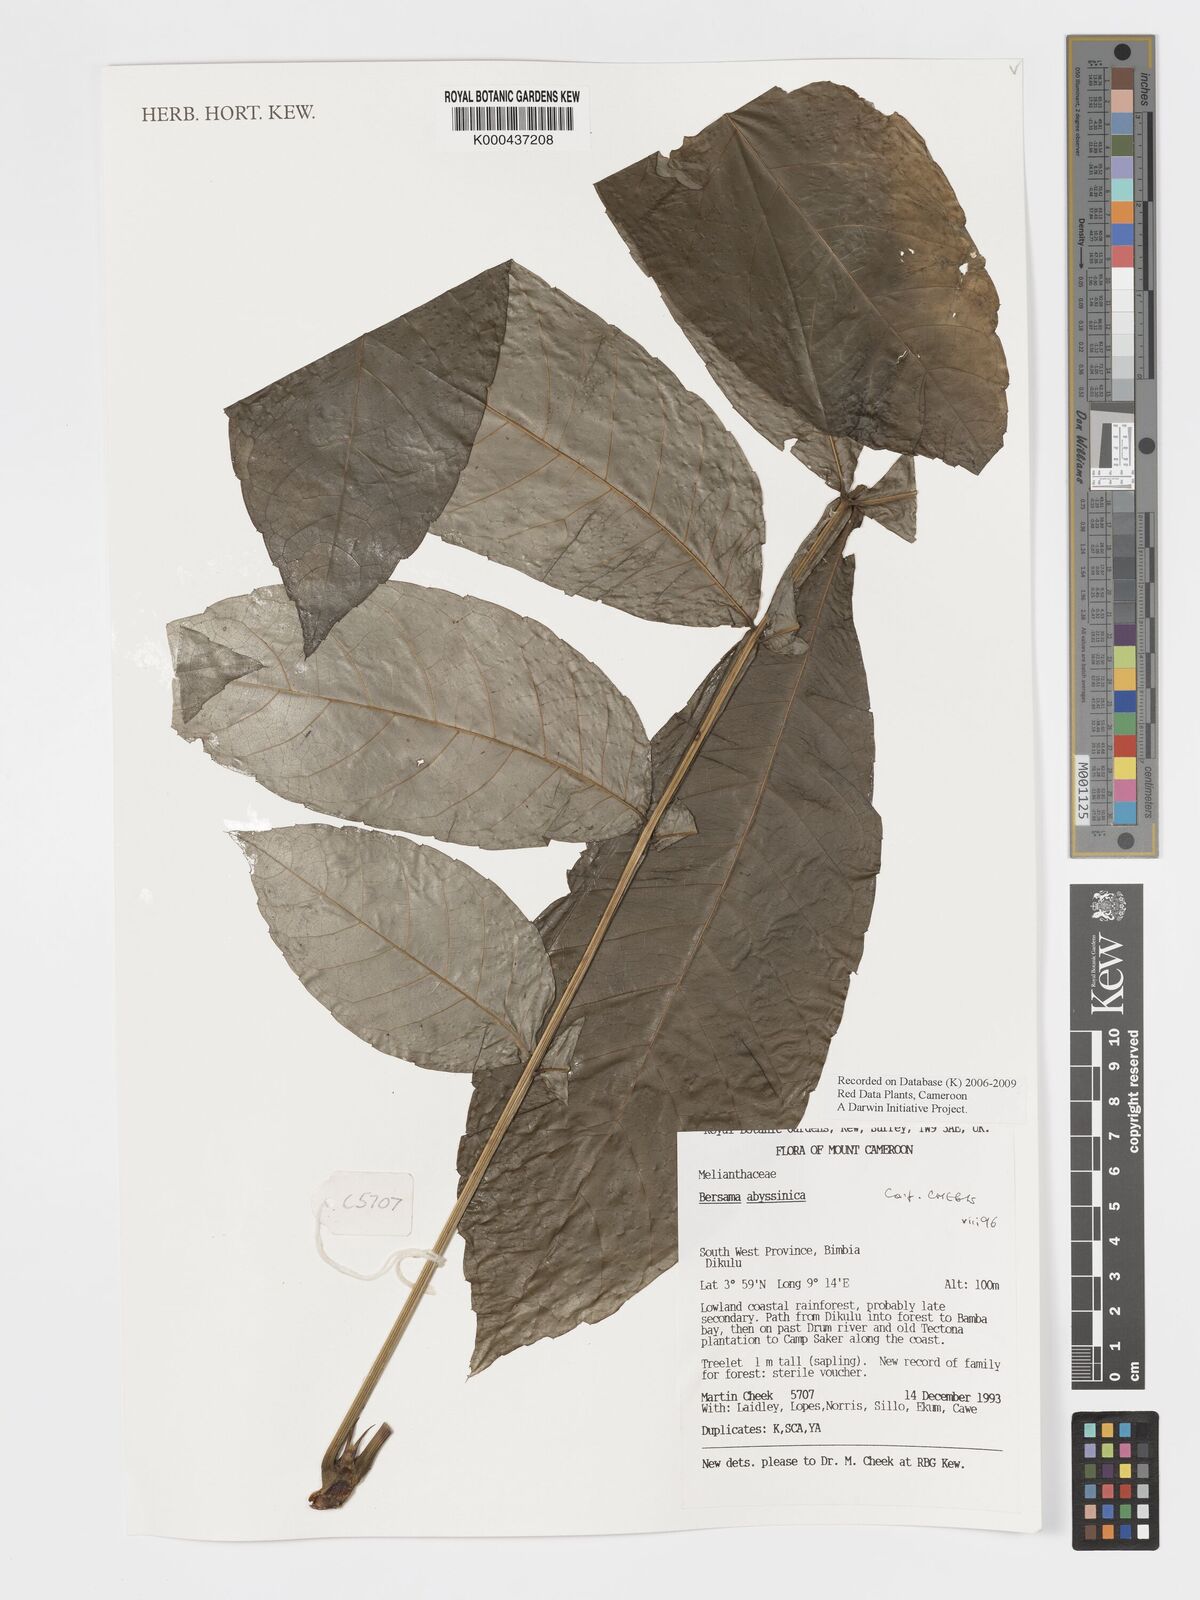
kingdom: Plantae
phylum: Tracheophyta
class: Magnoliopsida
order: Geraniales
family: Melianthaceae
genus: Bersama
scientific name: Bersama abyssinica
